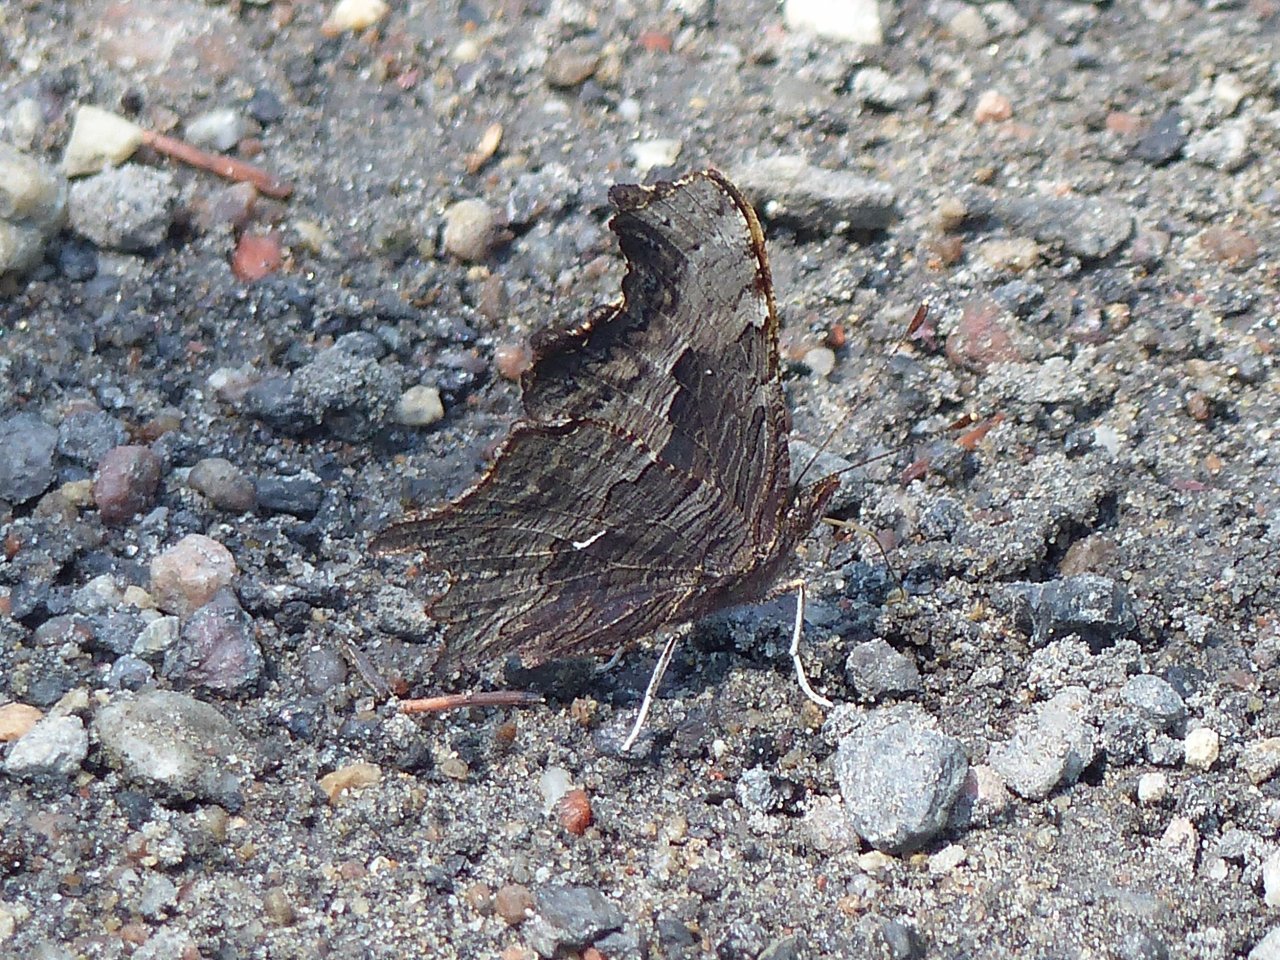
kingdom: Animalia
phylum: Arthropoda
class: Insecta
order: Lepidoptera
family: Nymphalidae
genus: Polygonia
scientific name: Polygonia progne
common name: Gray Comma
